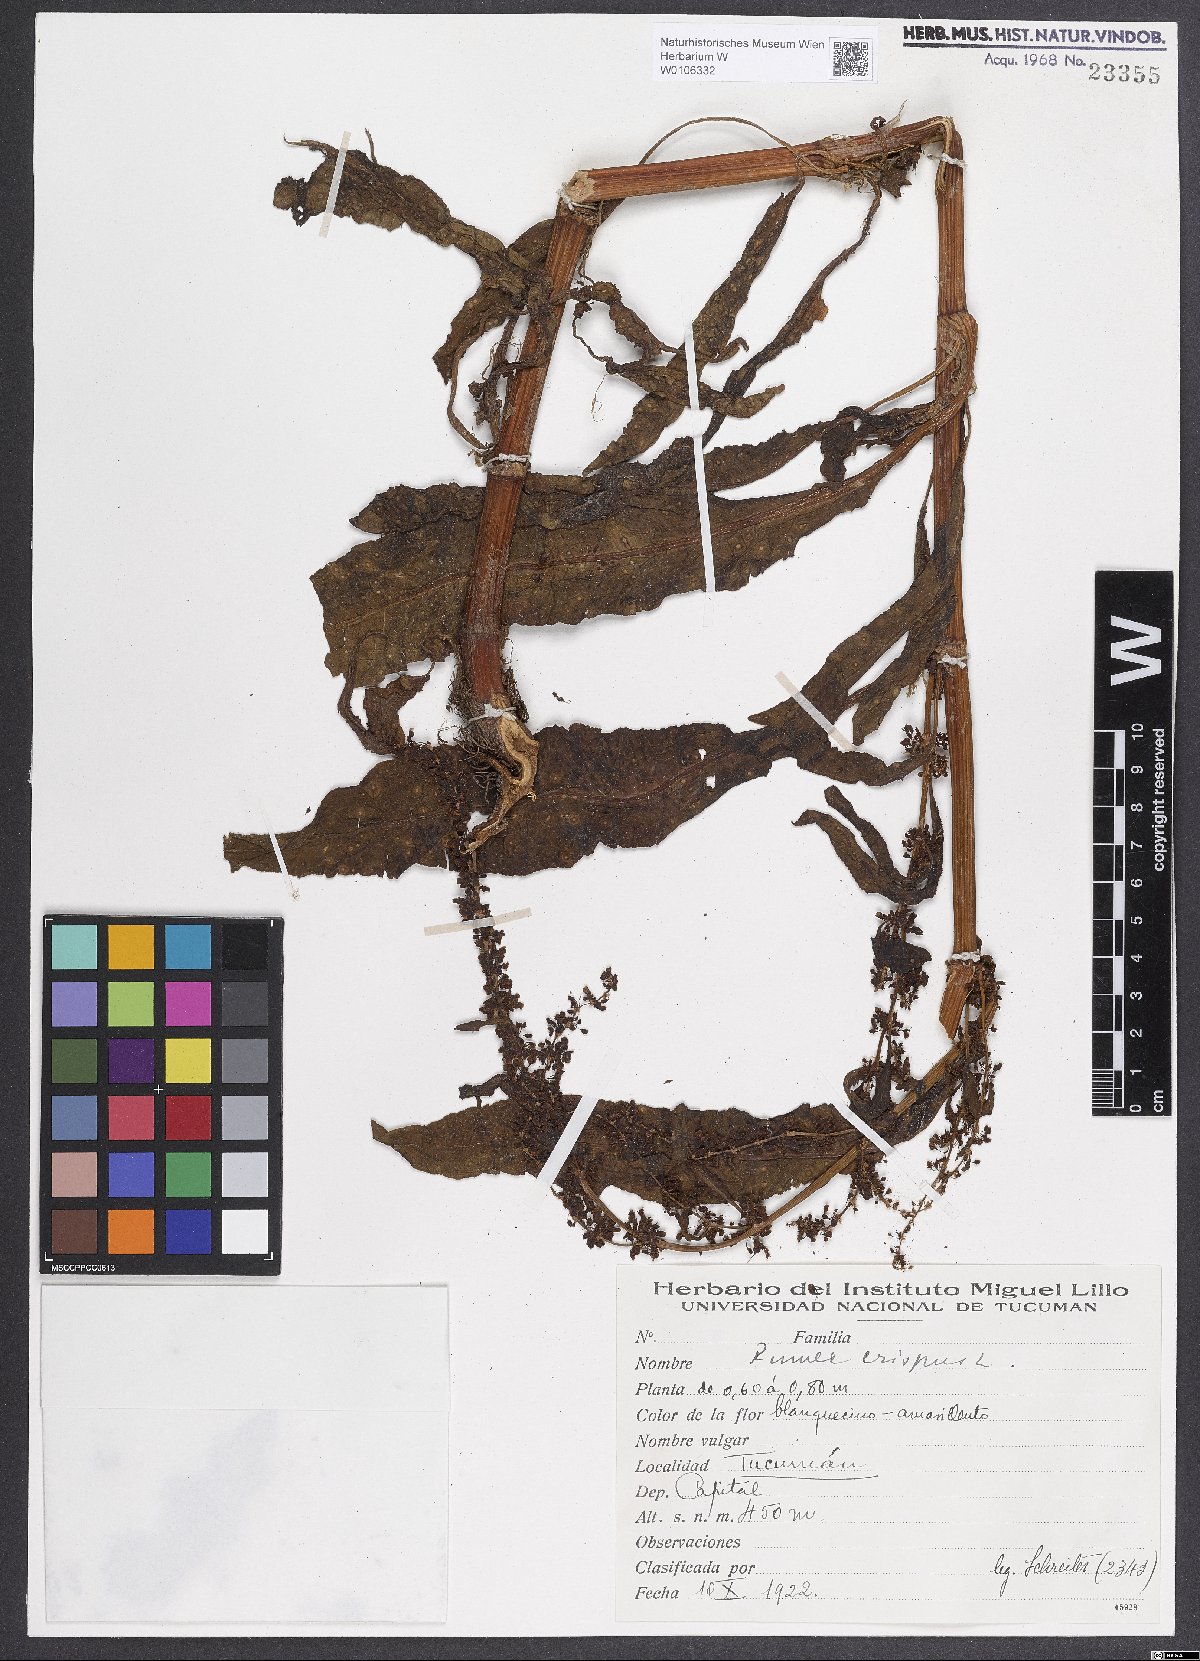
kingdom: Plantae
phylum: Tracheophyta
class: Magnoliopsida
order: Caryophyllales
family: Polygonaceae
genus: Rumex
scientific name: Rumex crispus
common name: Curled dock
